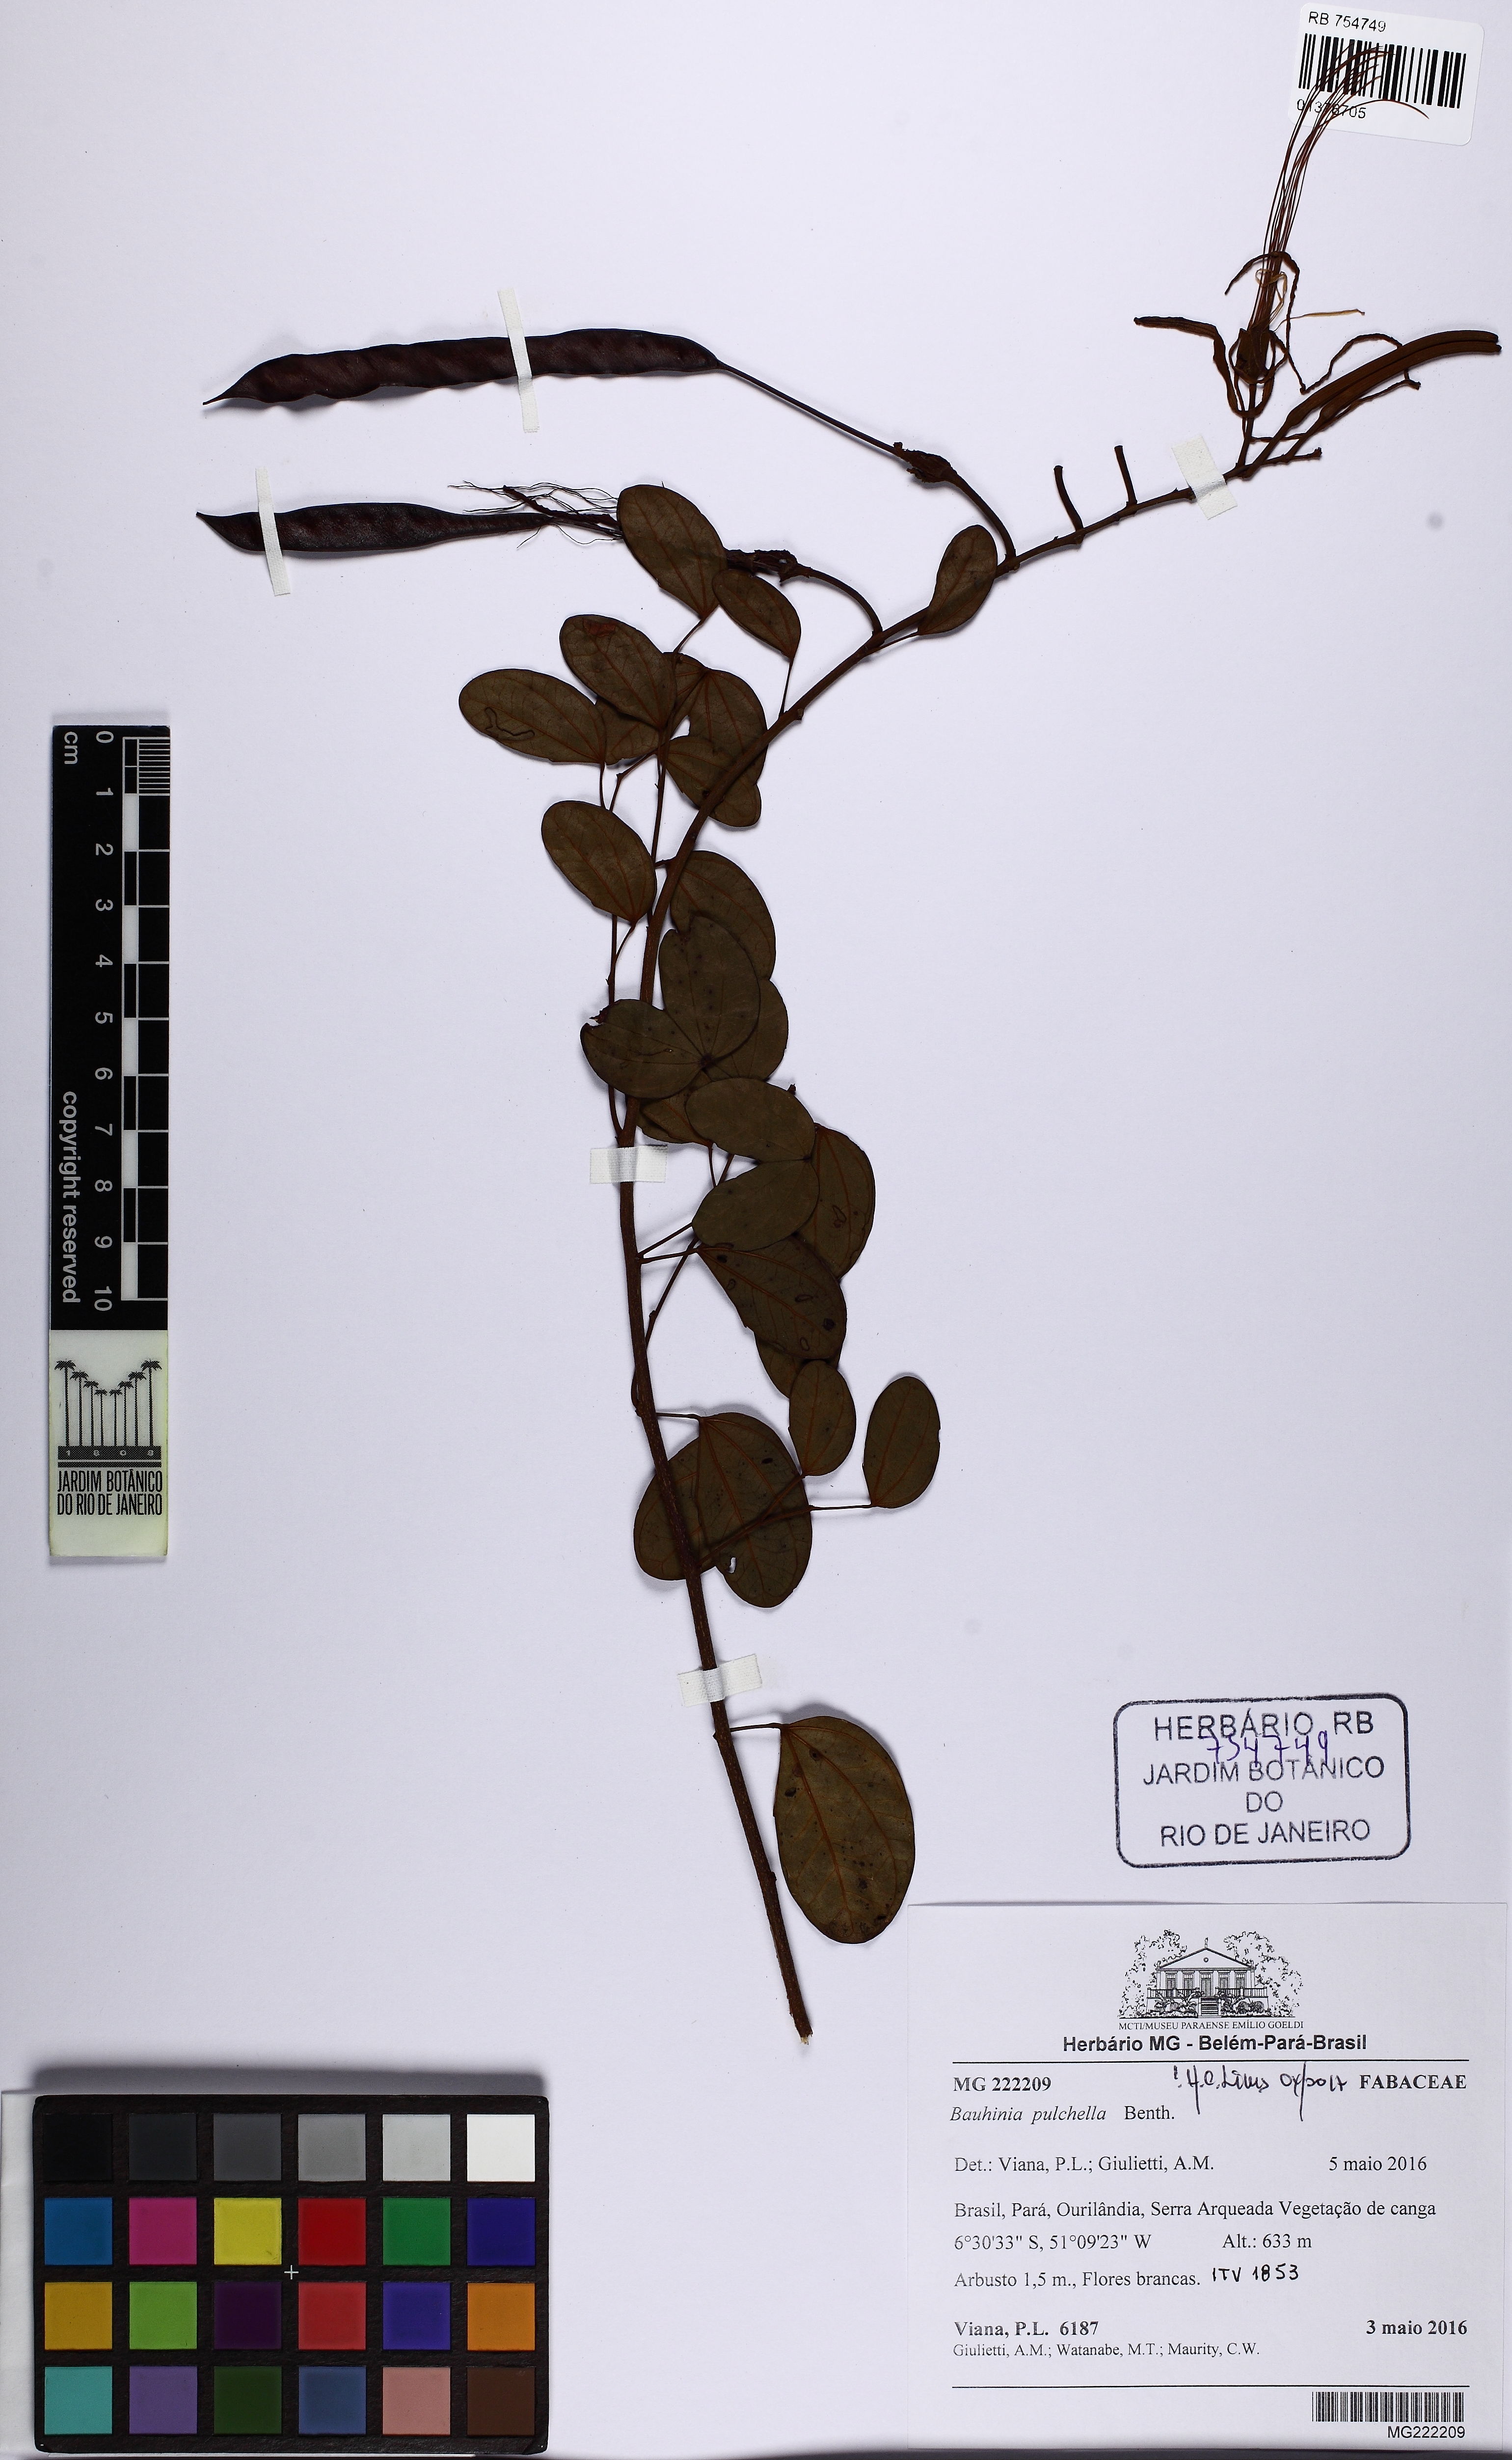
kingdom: Plantae
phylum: Tracheophyta
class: Magnoliopsida
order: Fabales
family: Fabaceae
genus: Bauhinia
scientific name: Bauhinia pulchella
